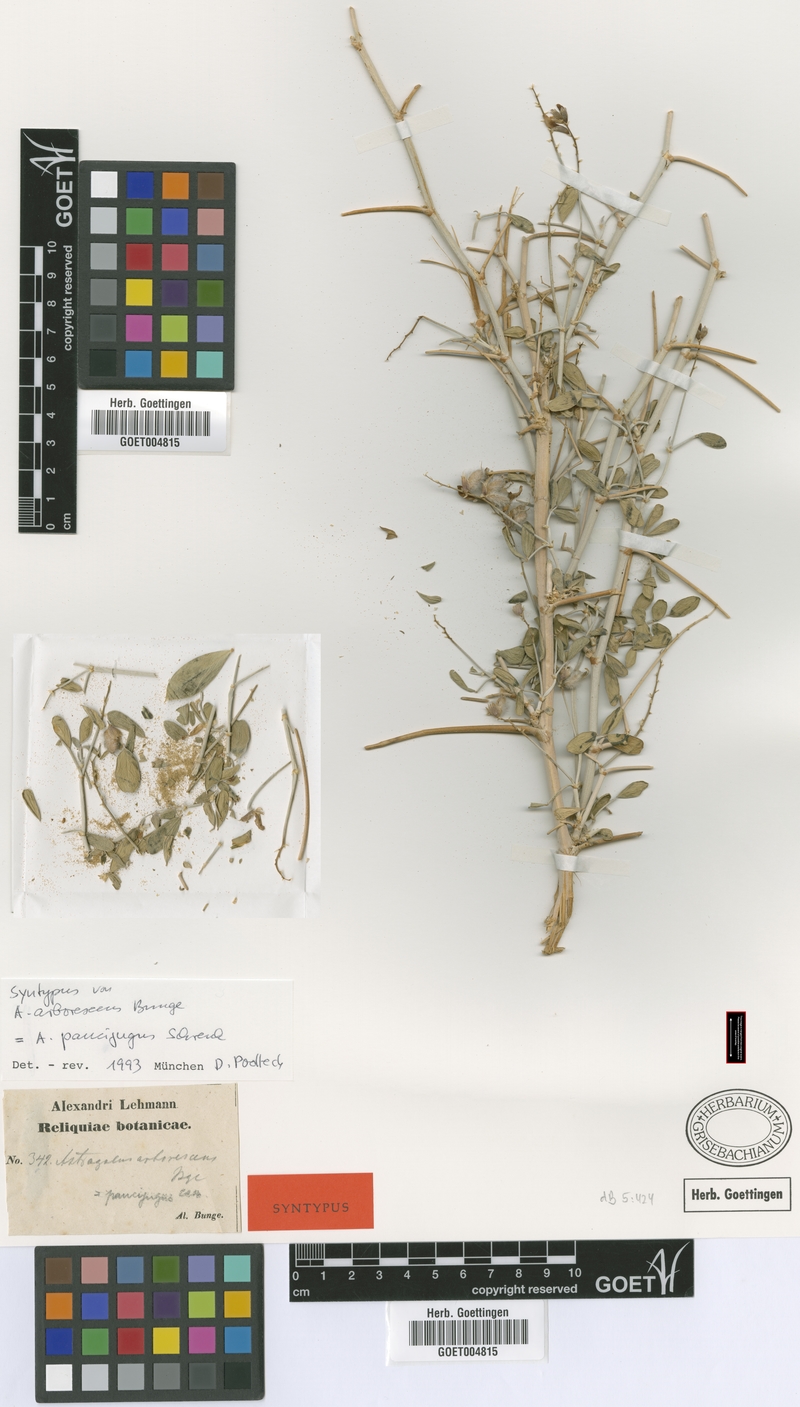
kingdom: Plantae
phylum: Tracheophyta
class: Magnoliopsida
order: Fabales
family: Fabaceae
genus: Astragalus
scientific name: Astragalus paucijugus
